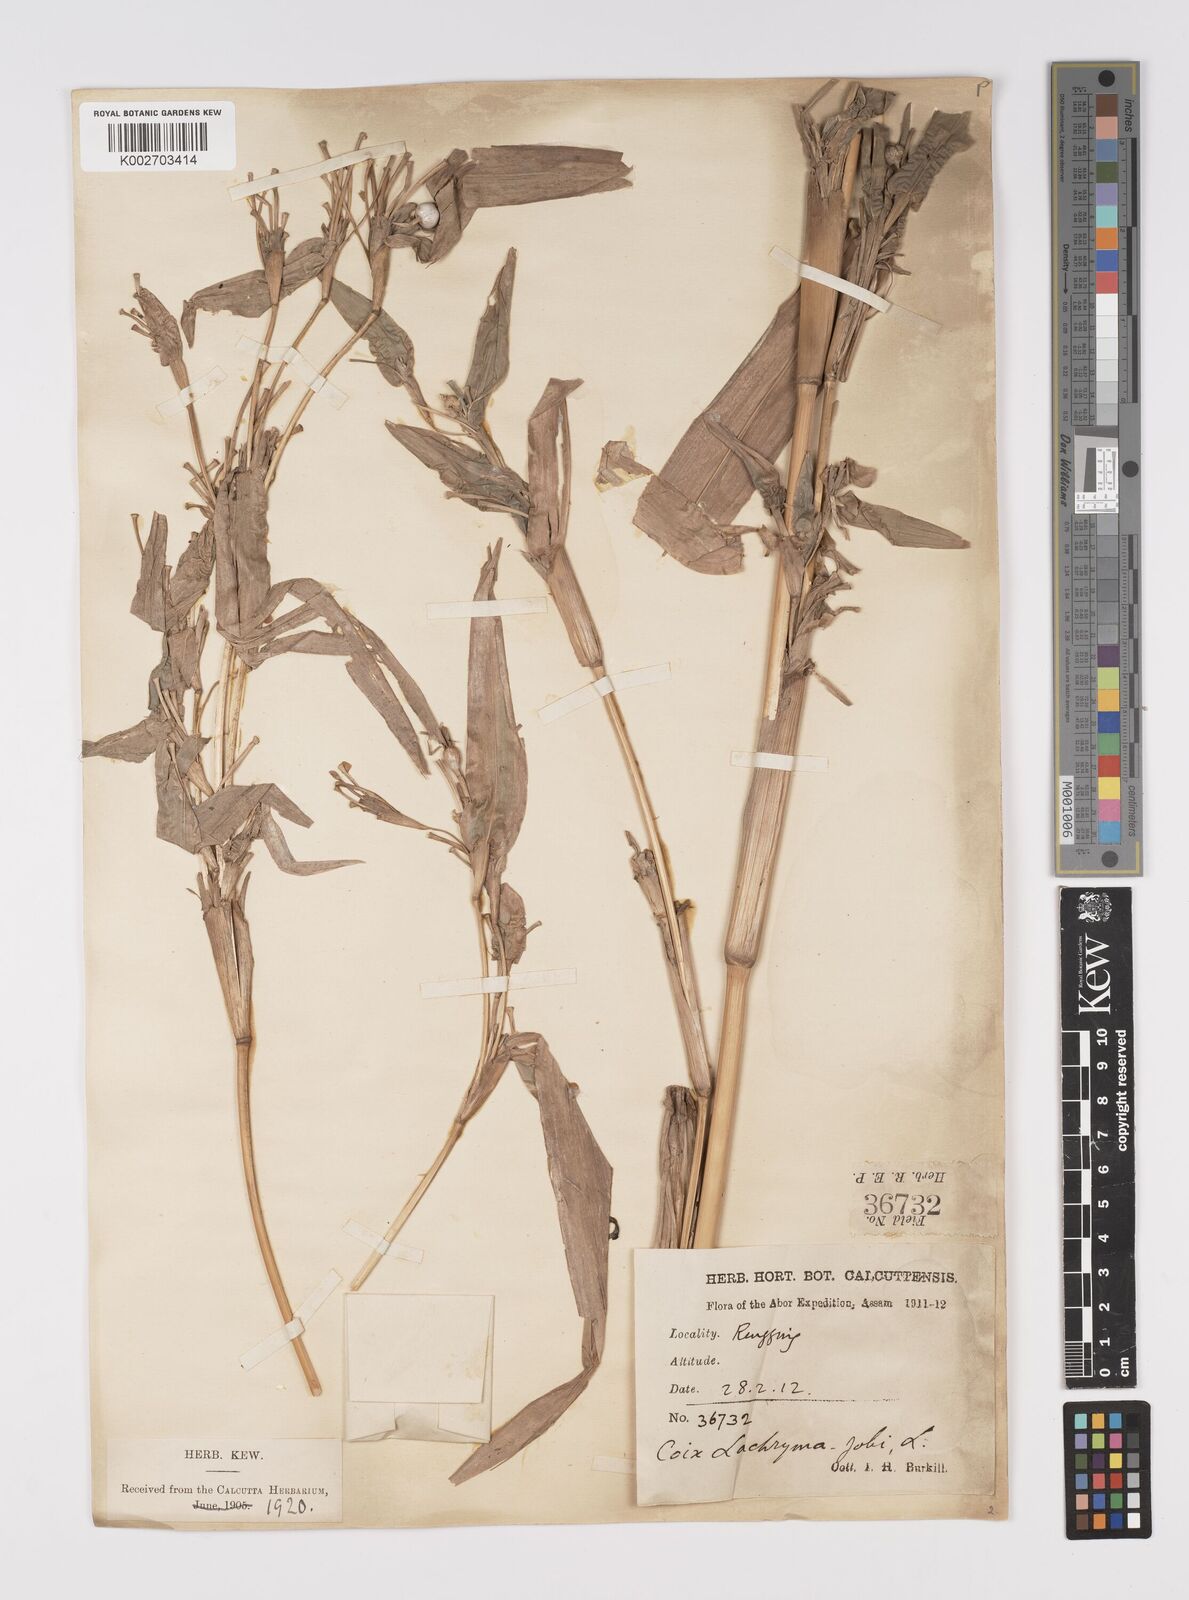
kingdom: Plantae
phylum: Tracheophyta
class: Liliopsida
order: Poales
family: Poaceae
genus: Coix
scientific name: Coix lacryma-jobi
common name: Job's tears
